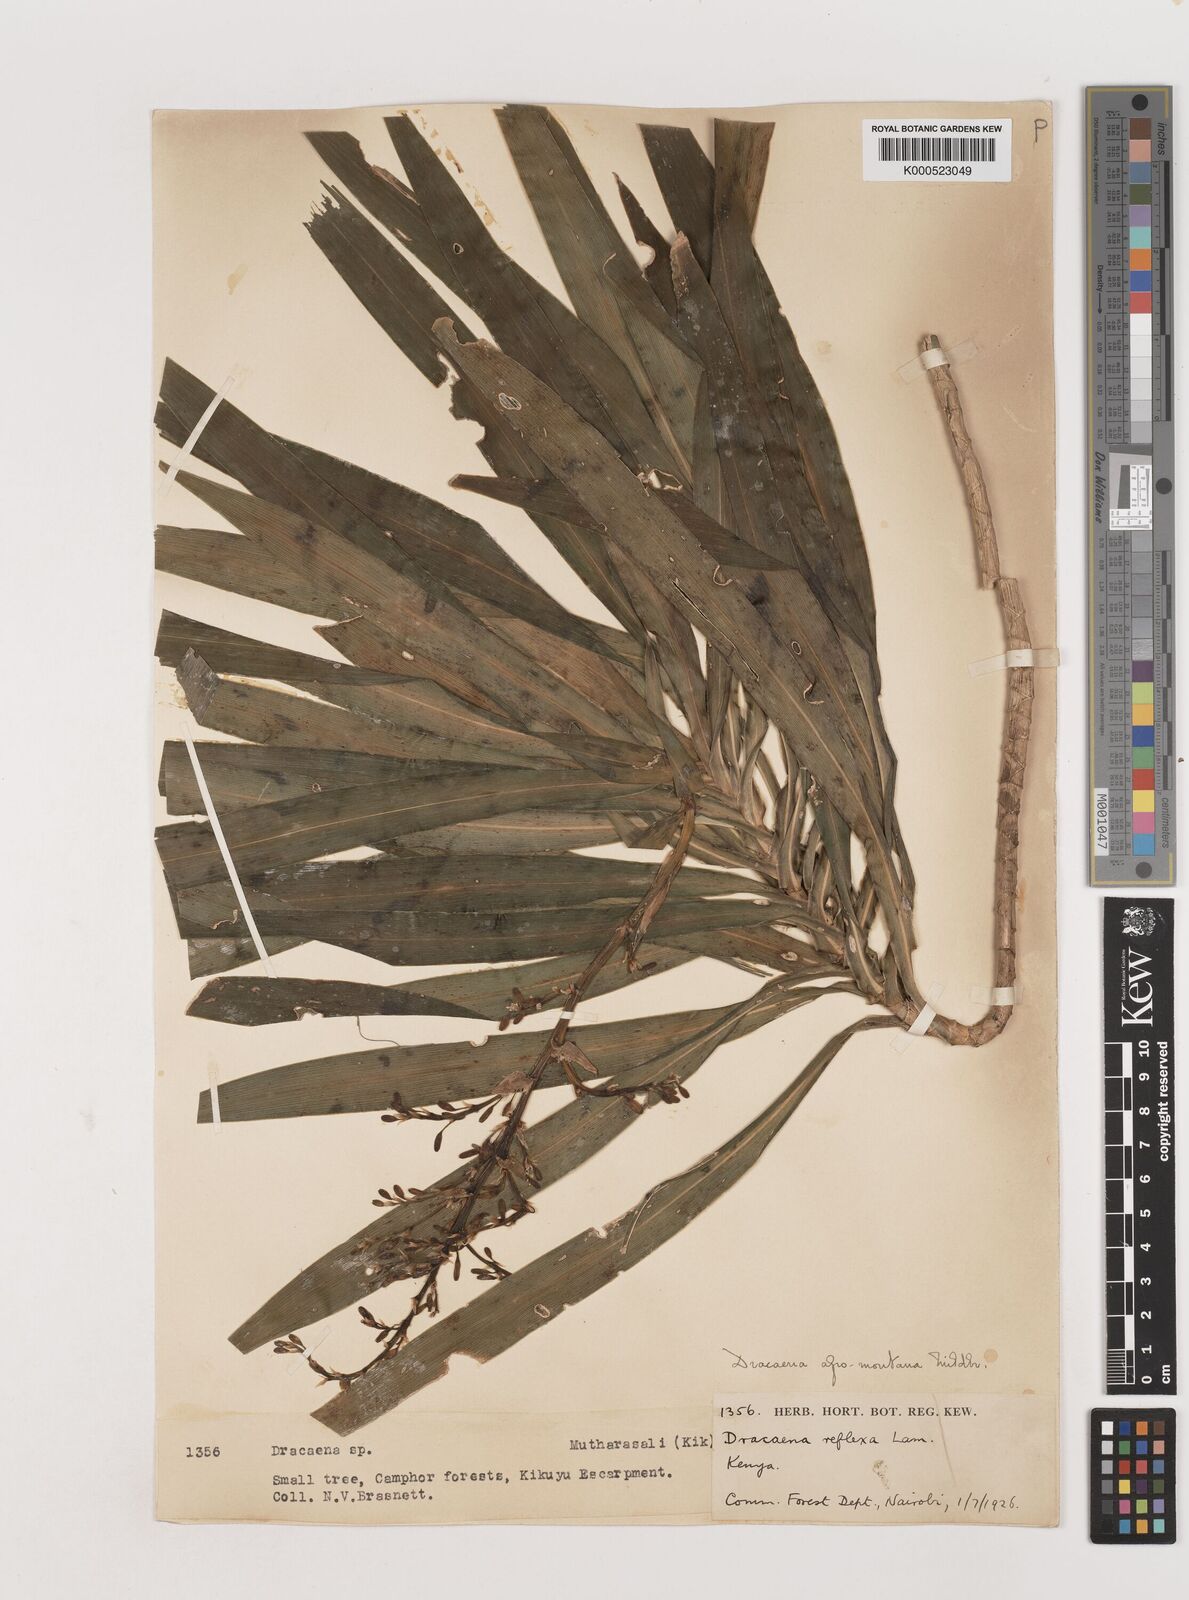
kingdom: Plantae
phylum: Tracheophyta
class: Liliopsida
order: Asparagales
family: Asparagaceae
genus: Dracaena
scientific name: Dracaena afromontana
